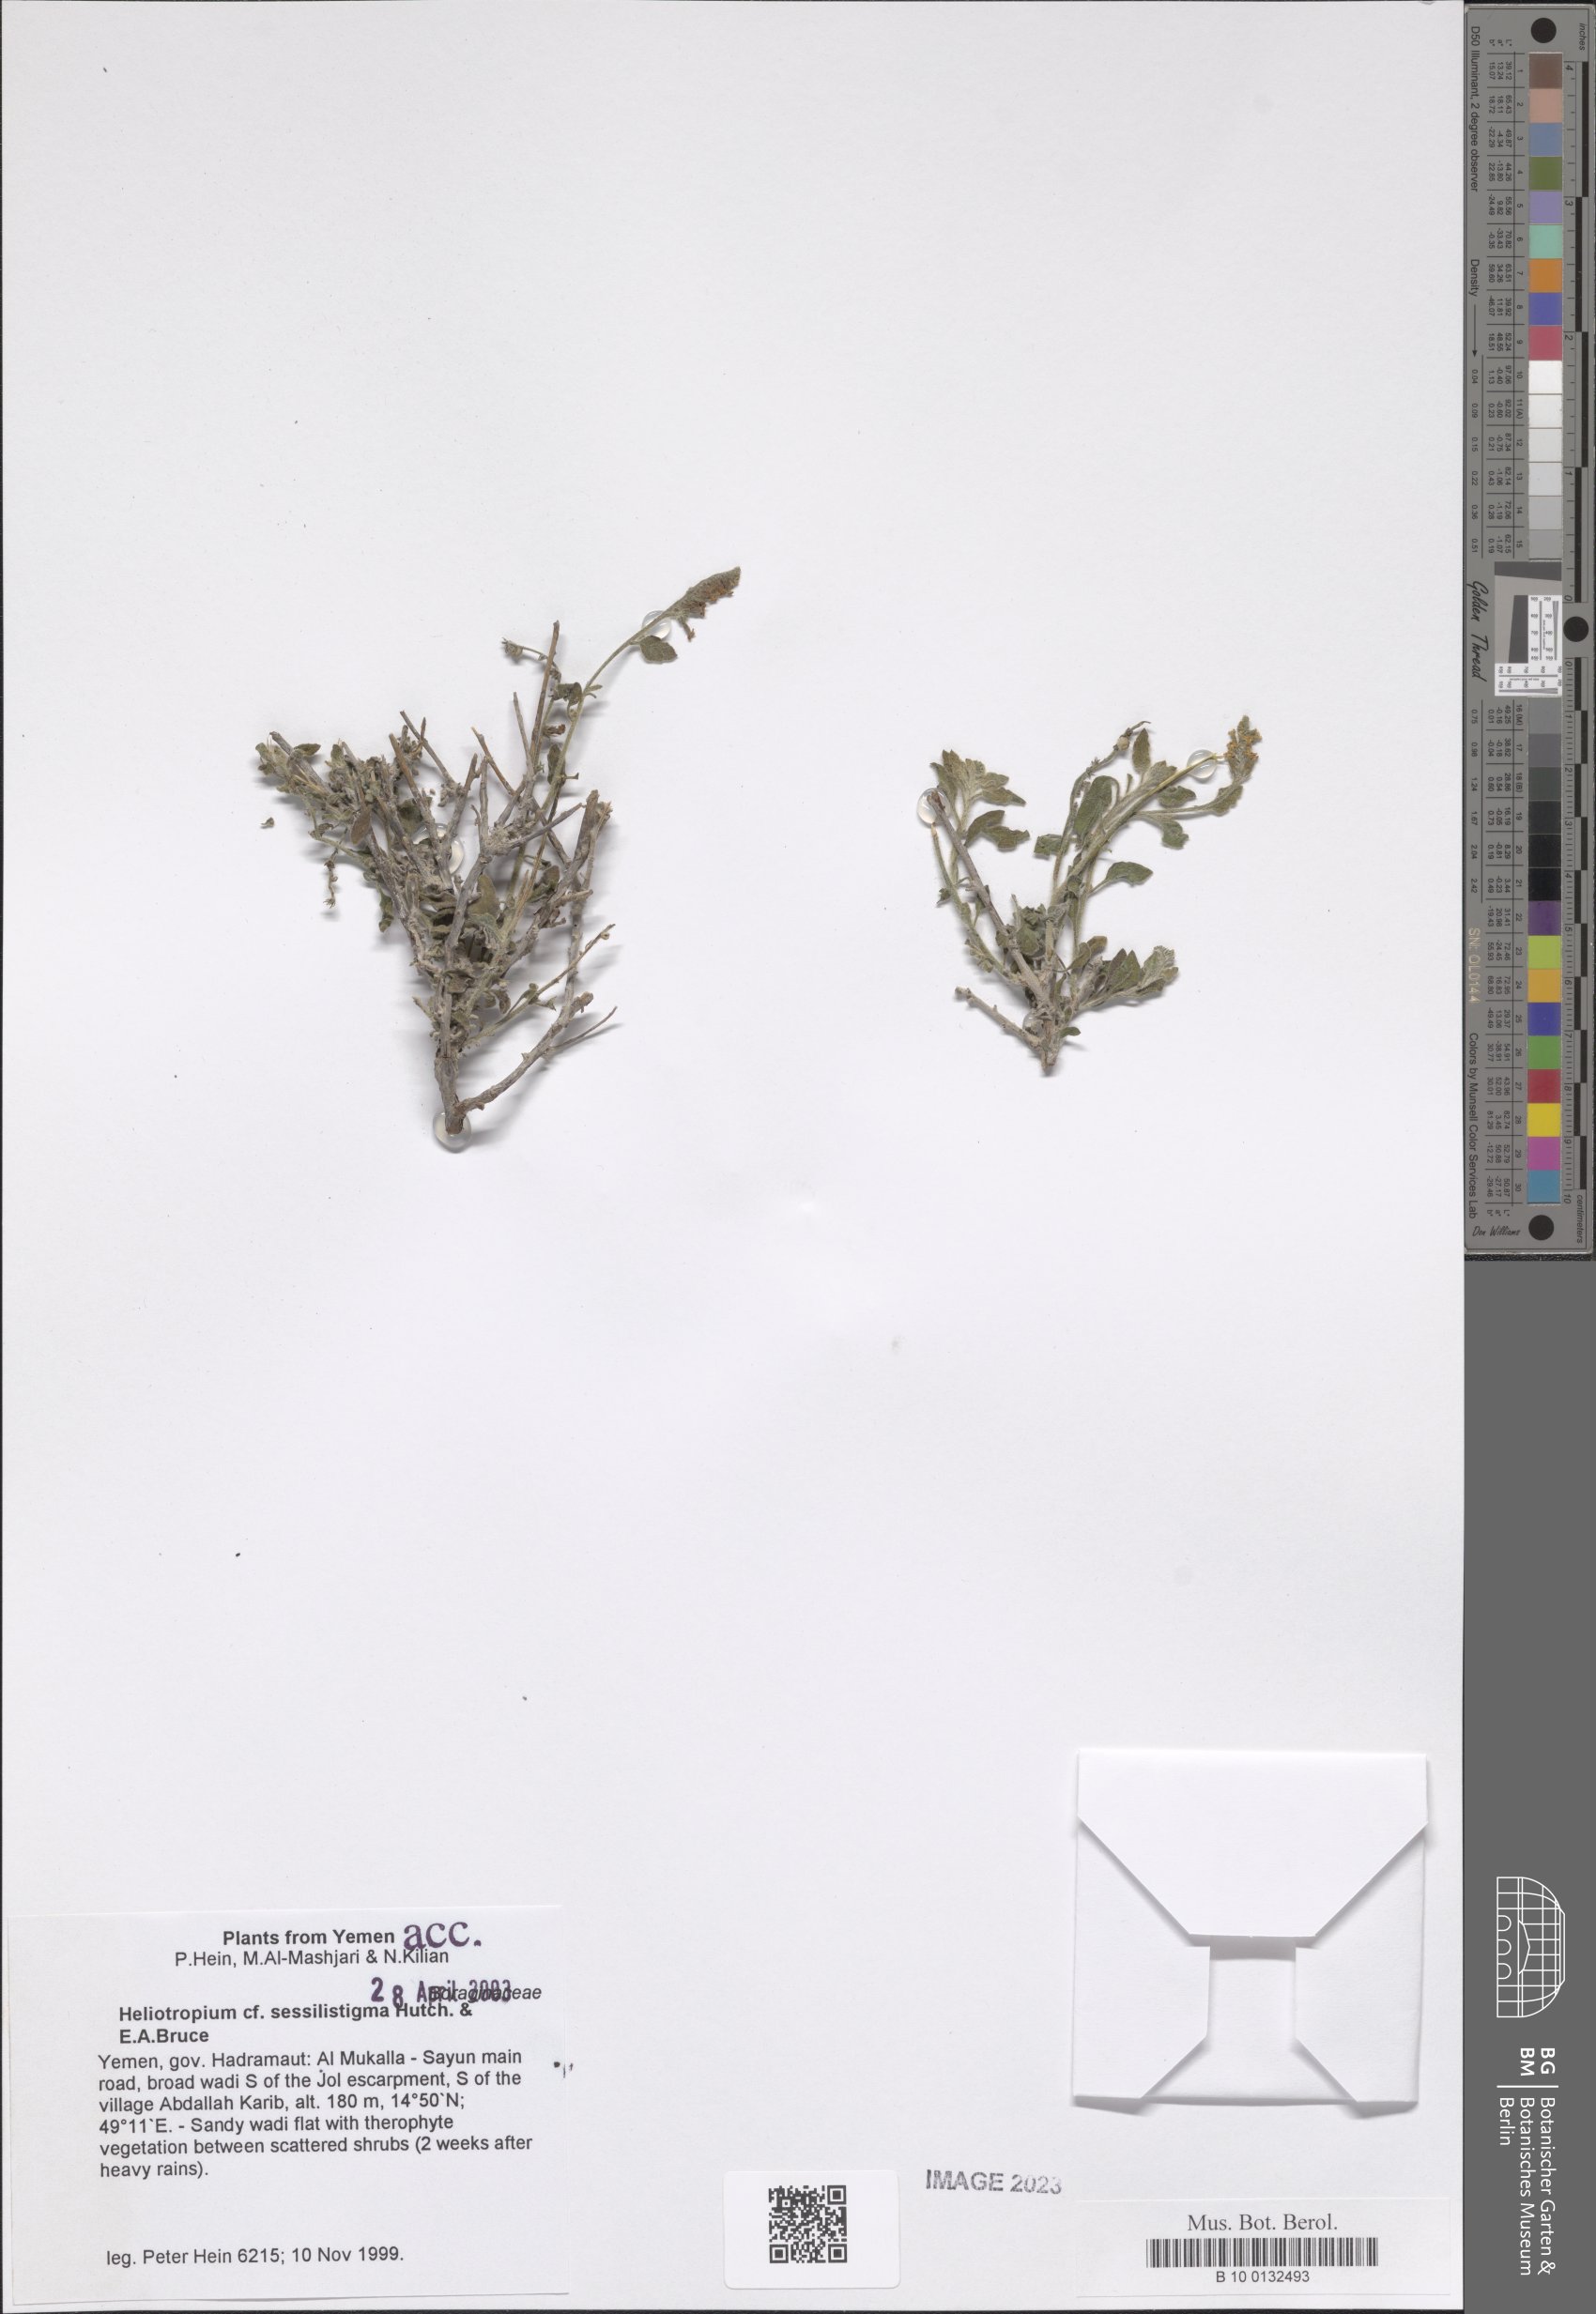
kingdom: Plantae
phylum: Tracheophyta
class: Magnoliopsida
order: Boraginales
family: Heliotropiaceae
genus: Euploca
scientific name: Euploca sessilistigma
